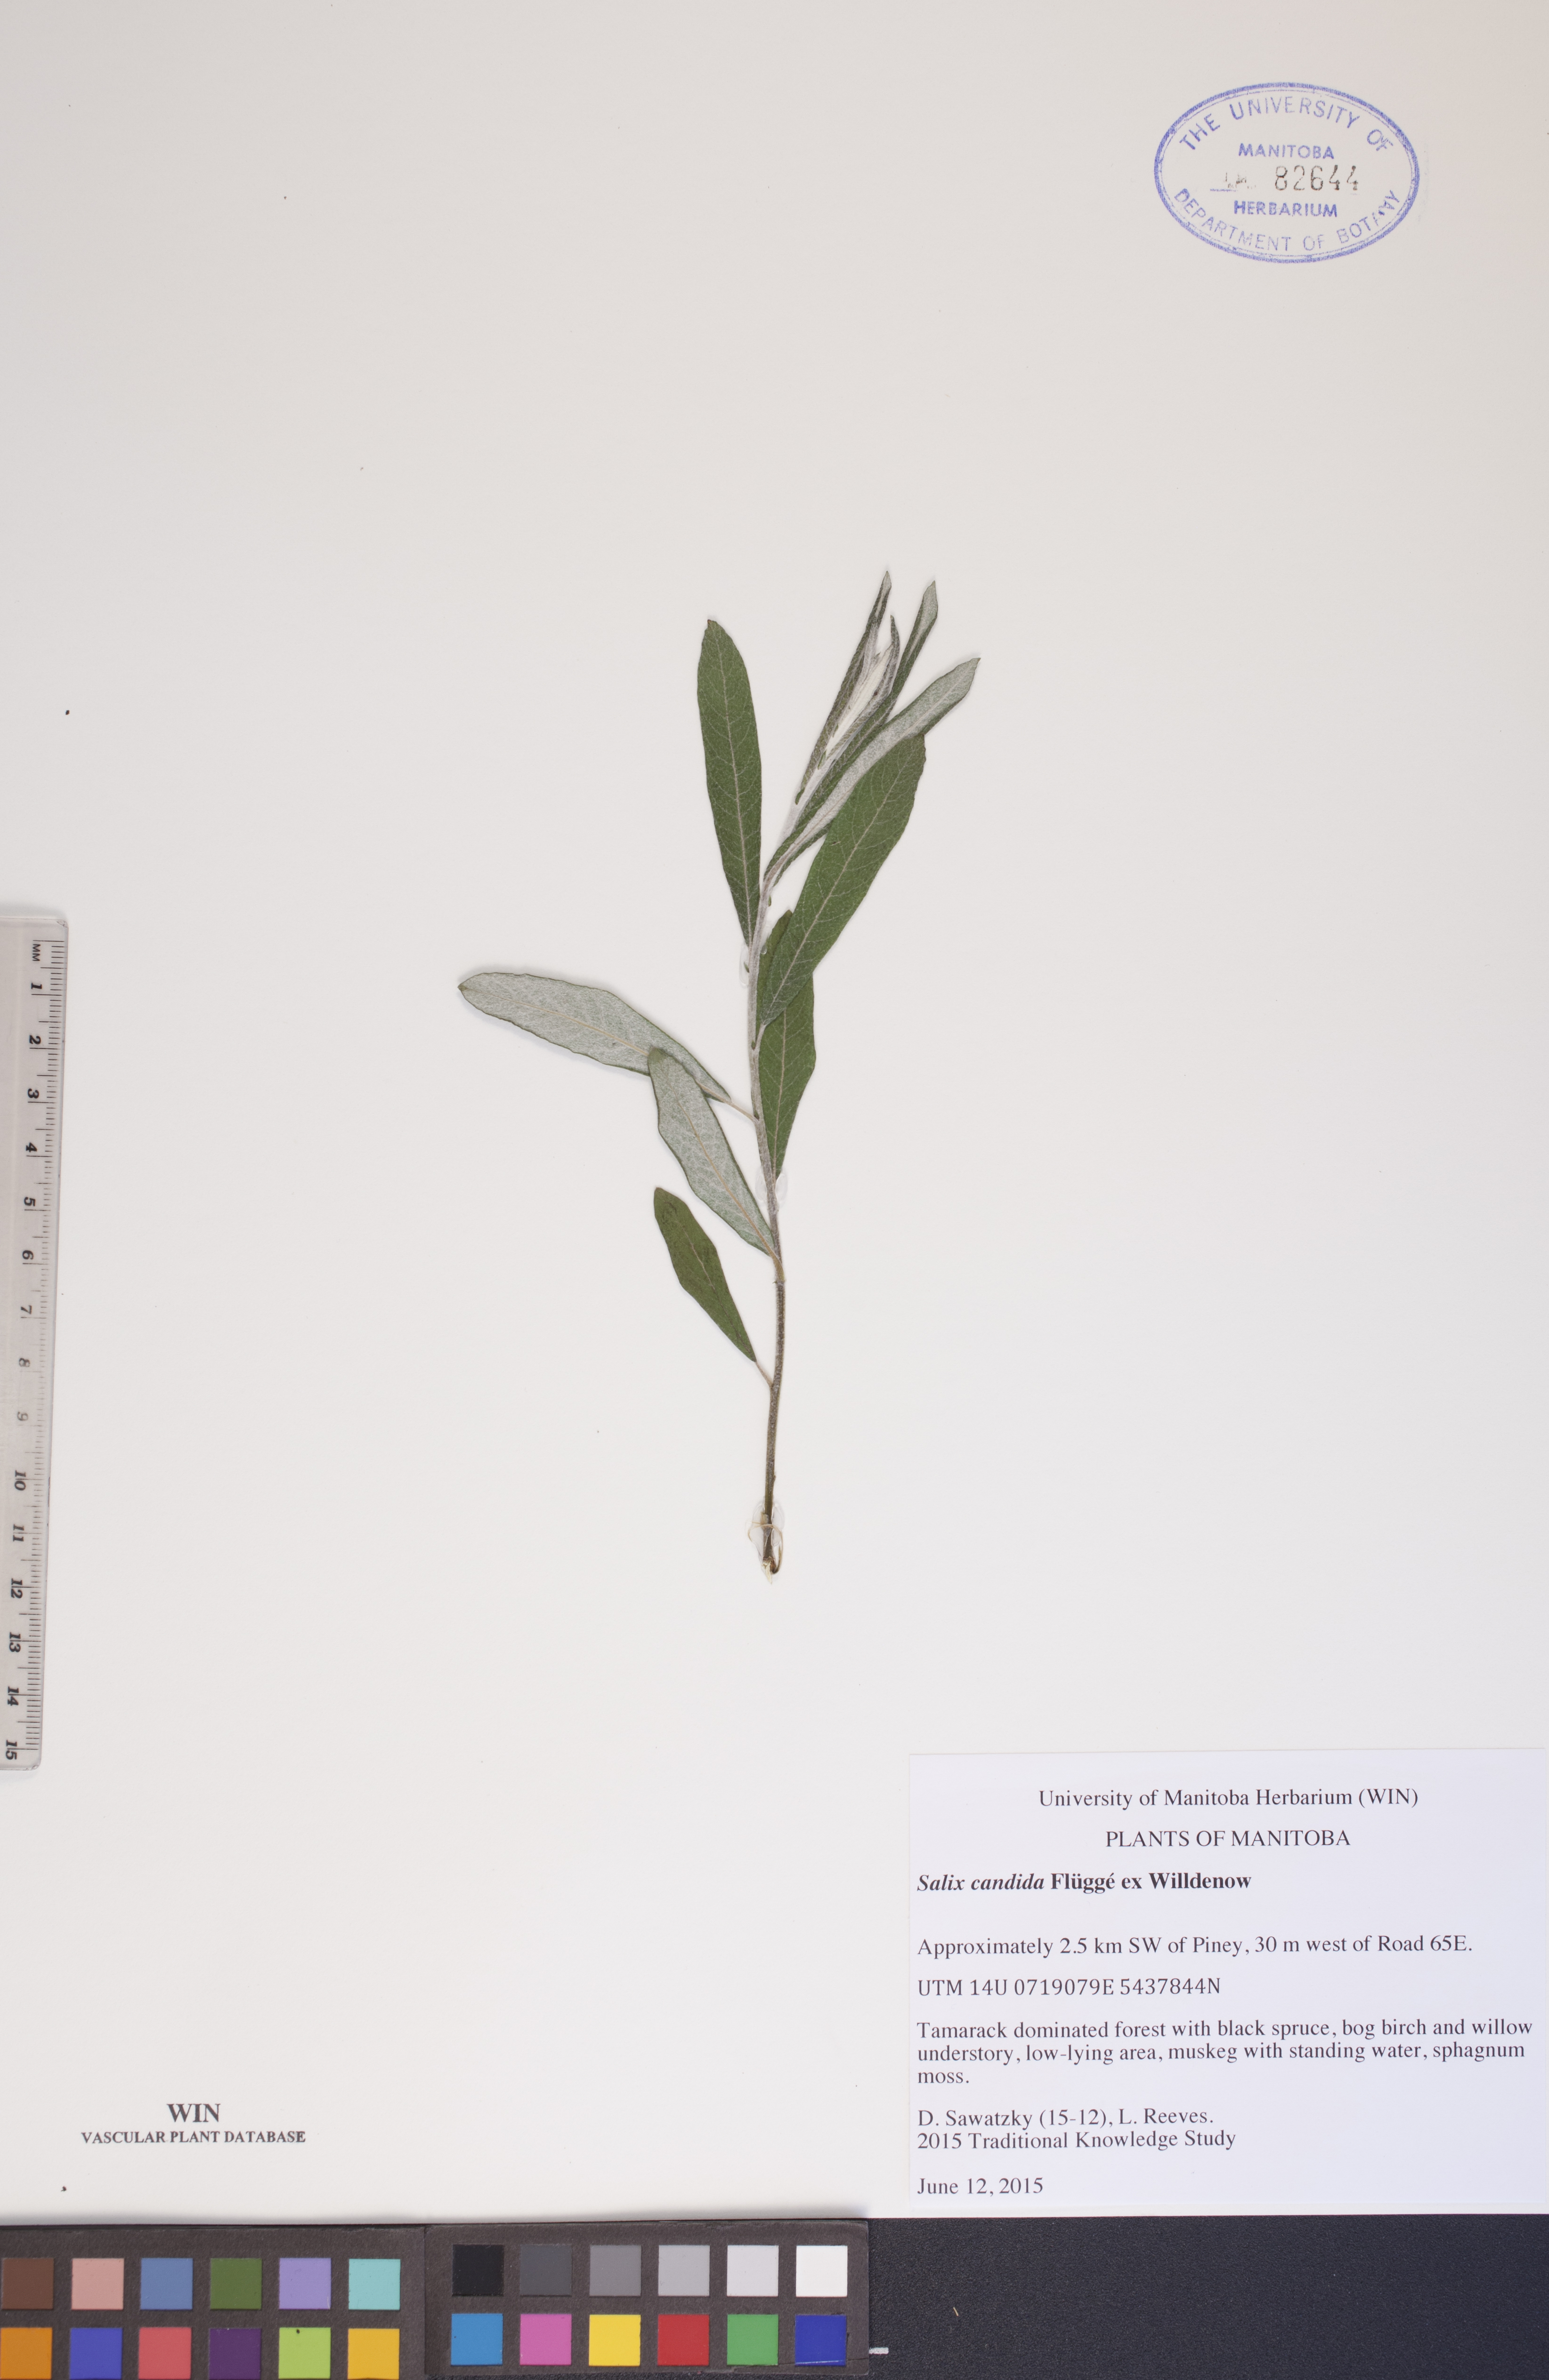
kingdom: Plantae
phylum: Tracheophyta
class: Magnoliopsida
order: Malpighiales
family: Salicaceae
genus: Salix
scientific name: Salix candida
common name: Hoary willow
